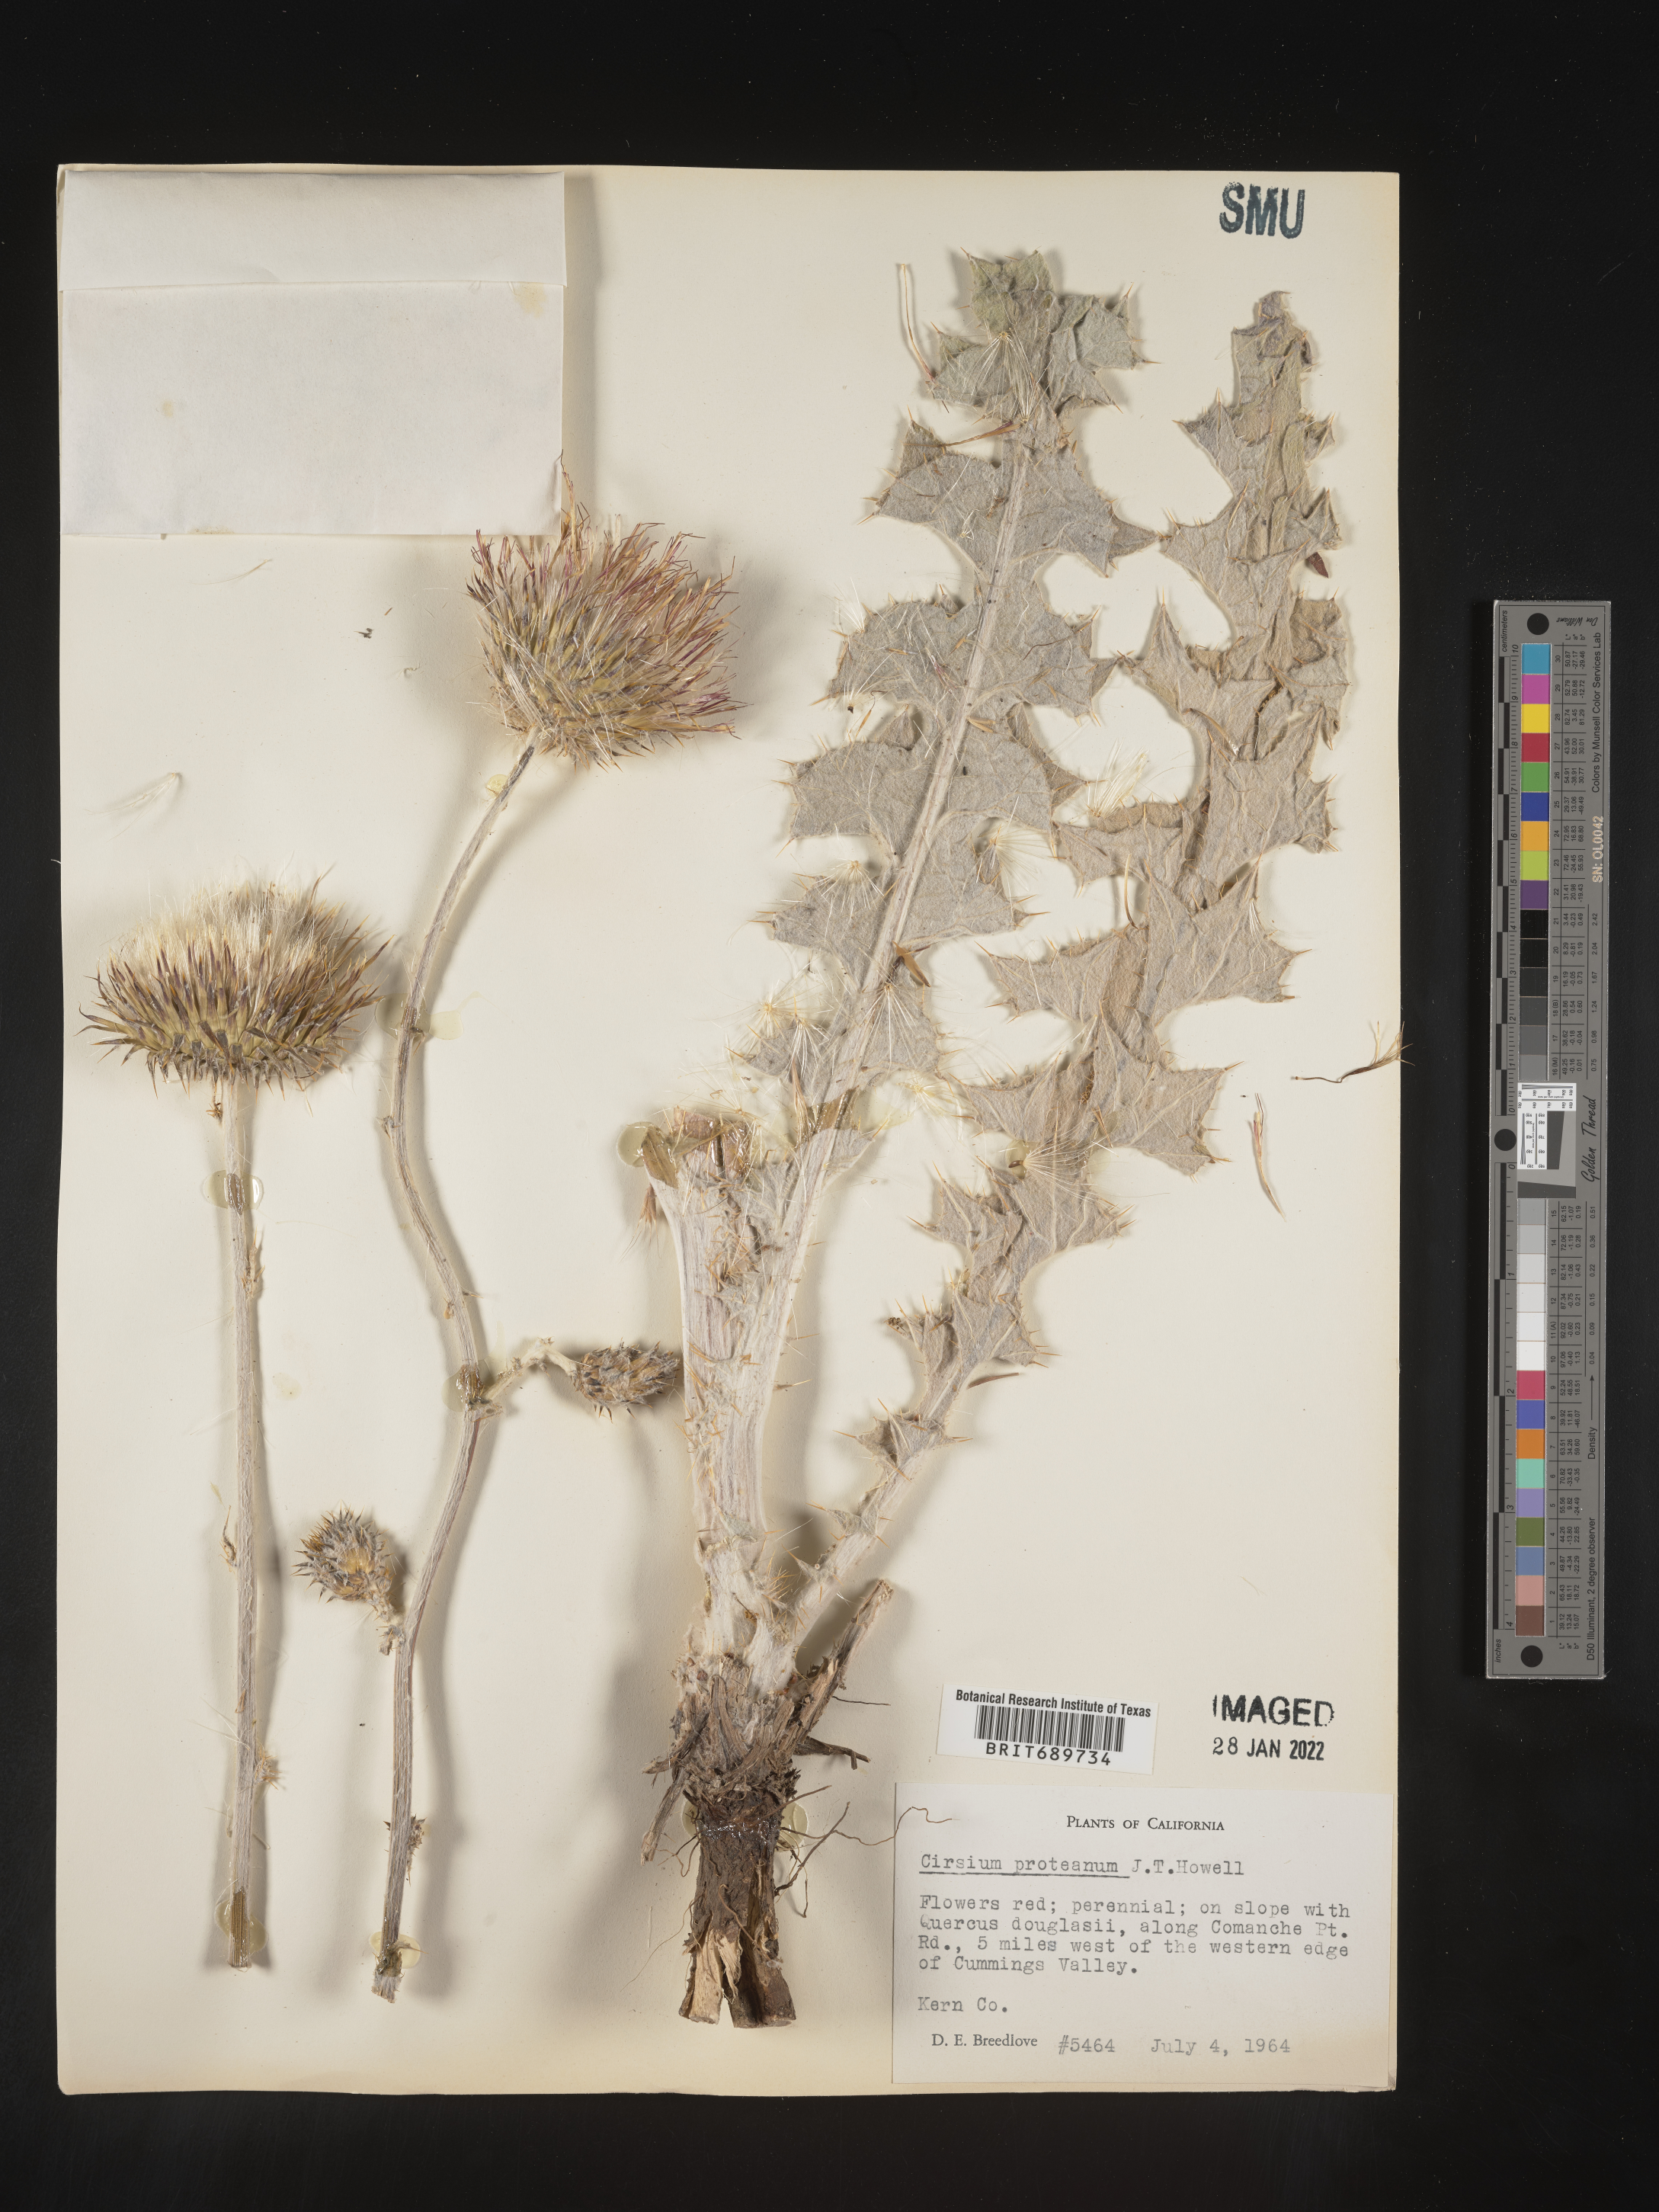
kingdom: Plantae
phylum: Tracheophyta
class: Magnoliopsida
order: Asterales
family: Asteraceae
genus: Cirsium
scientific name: Cirsium occidentale
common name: Western thistle
